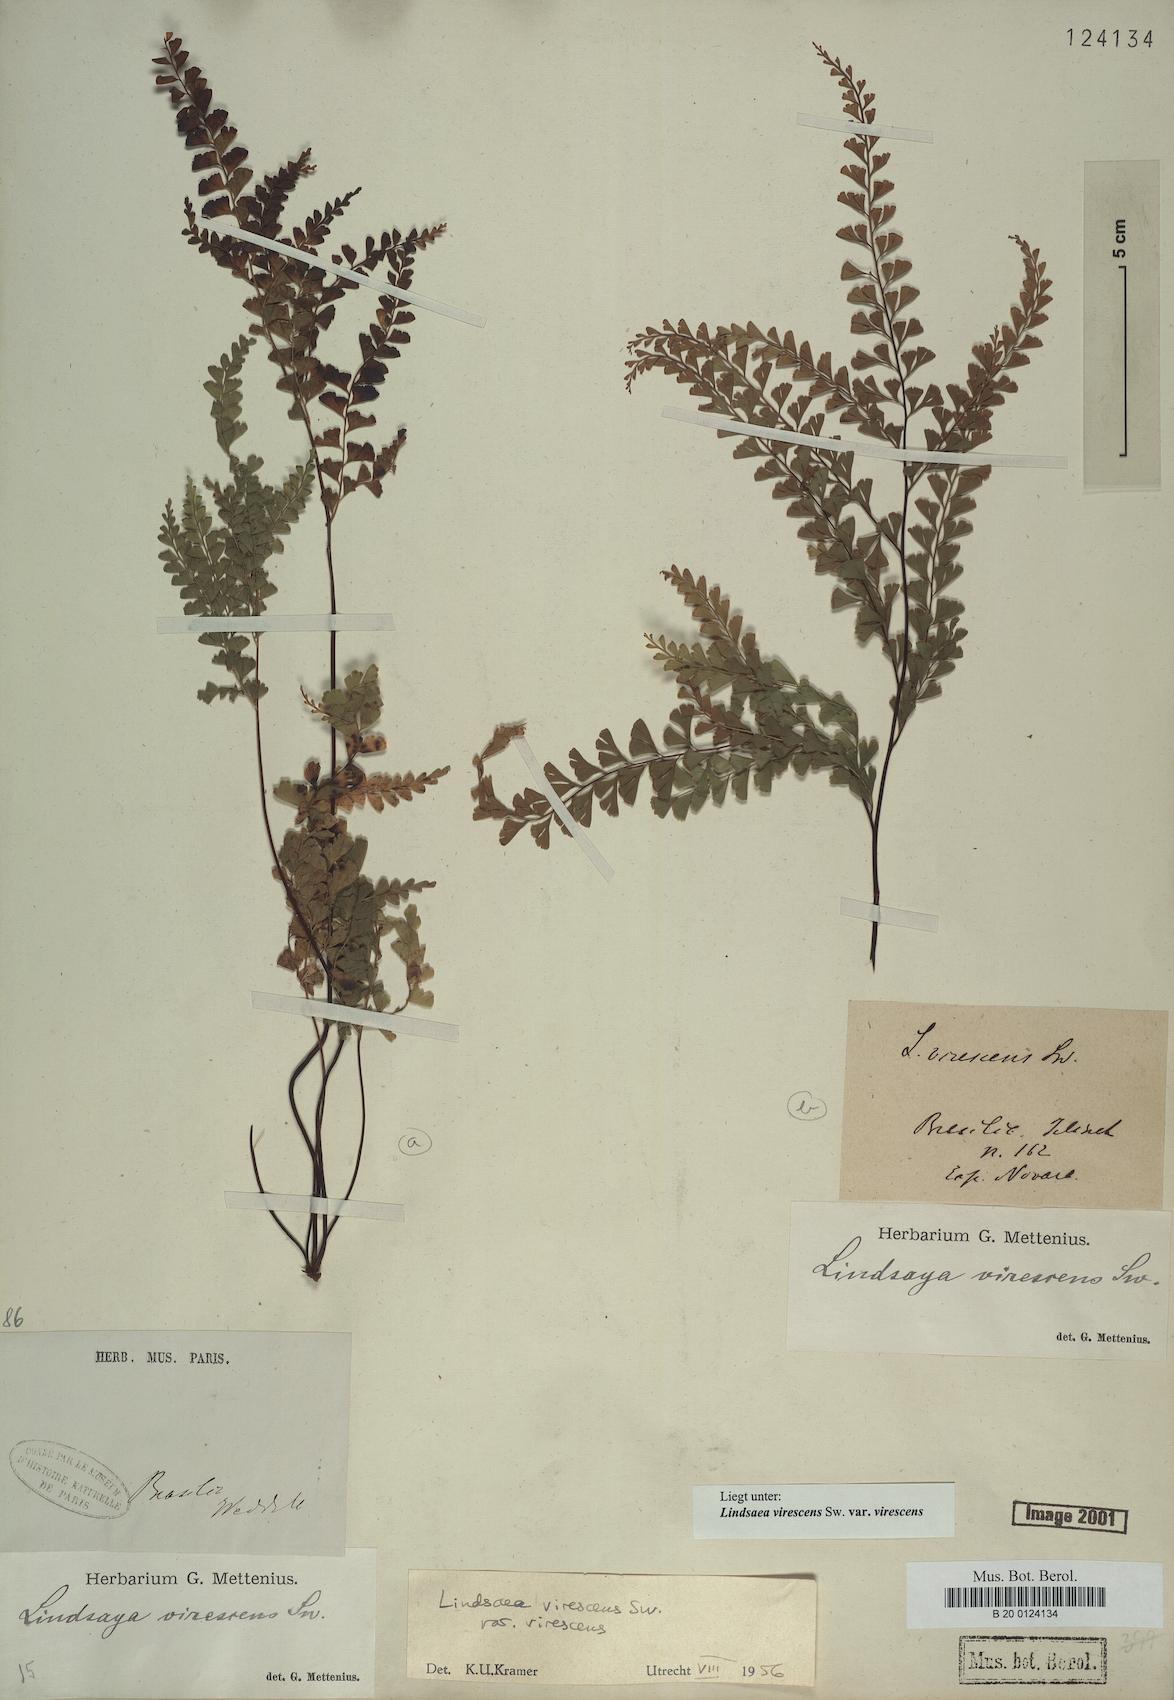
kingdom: Plantae
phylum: Tracheophyta
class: Polypodiopsida
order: Polypodiales
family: Lindsaeaceae
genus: Lindsaea
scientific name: Lindsaea virescens
